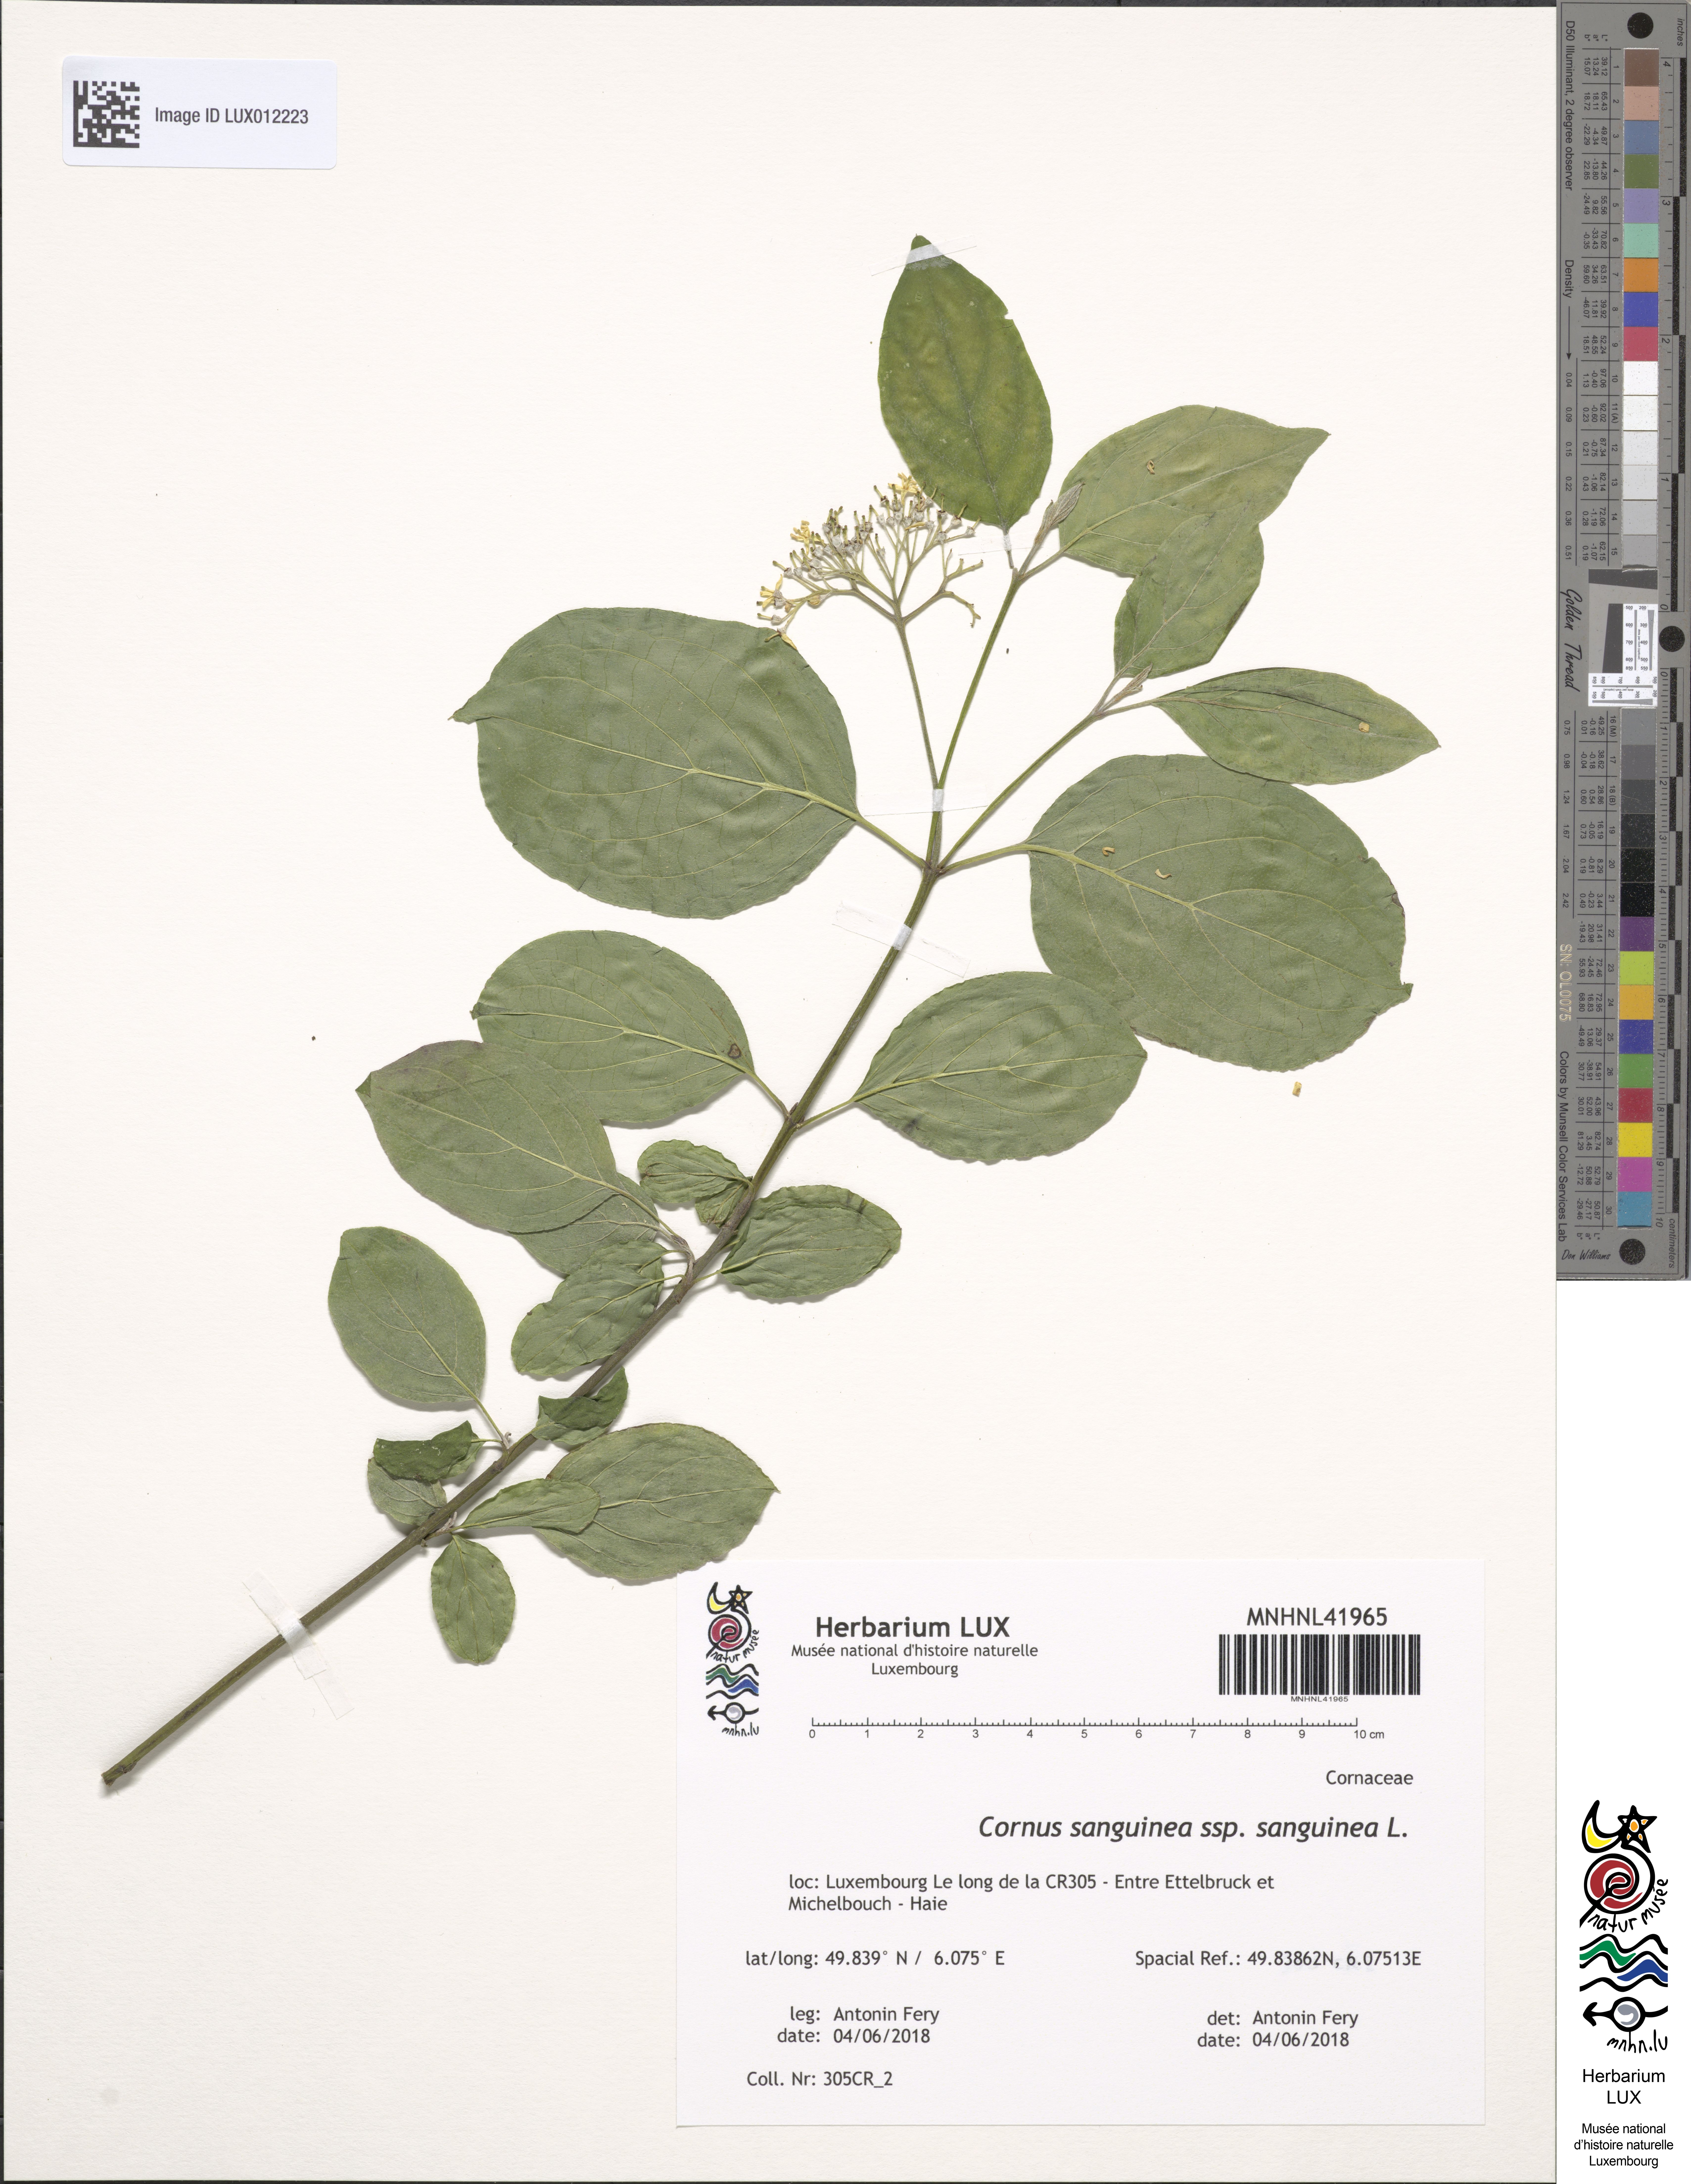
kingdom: Plantae
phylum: Tracheophyta
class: Magnoliopsida
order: Cornales
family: Cornaceae
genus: Cornus
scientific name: Cornus sanguinea
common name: Dogwood
